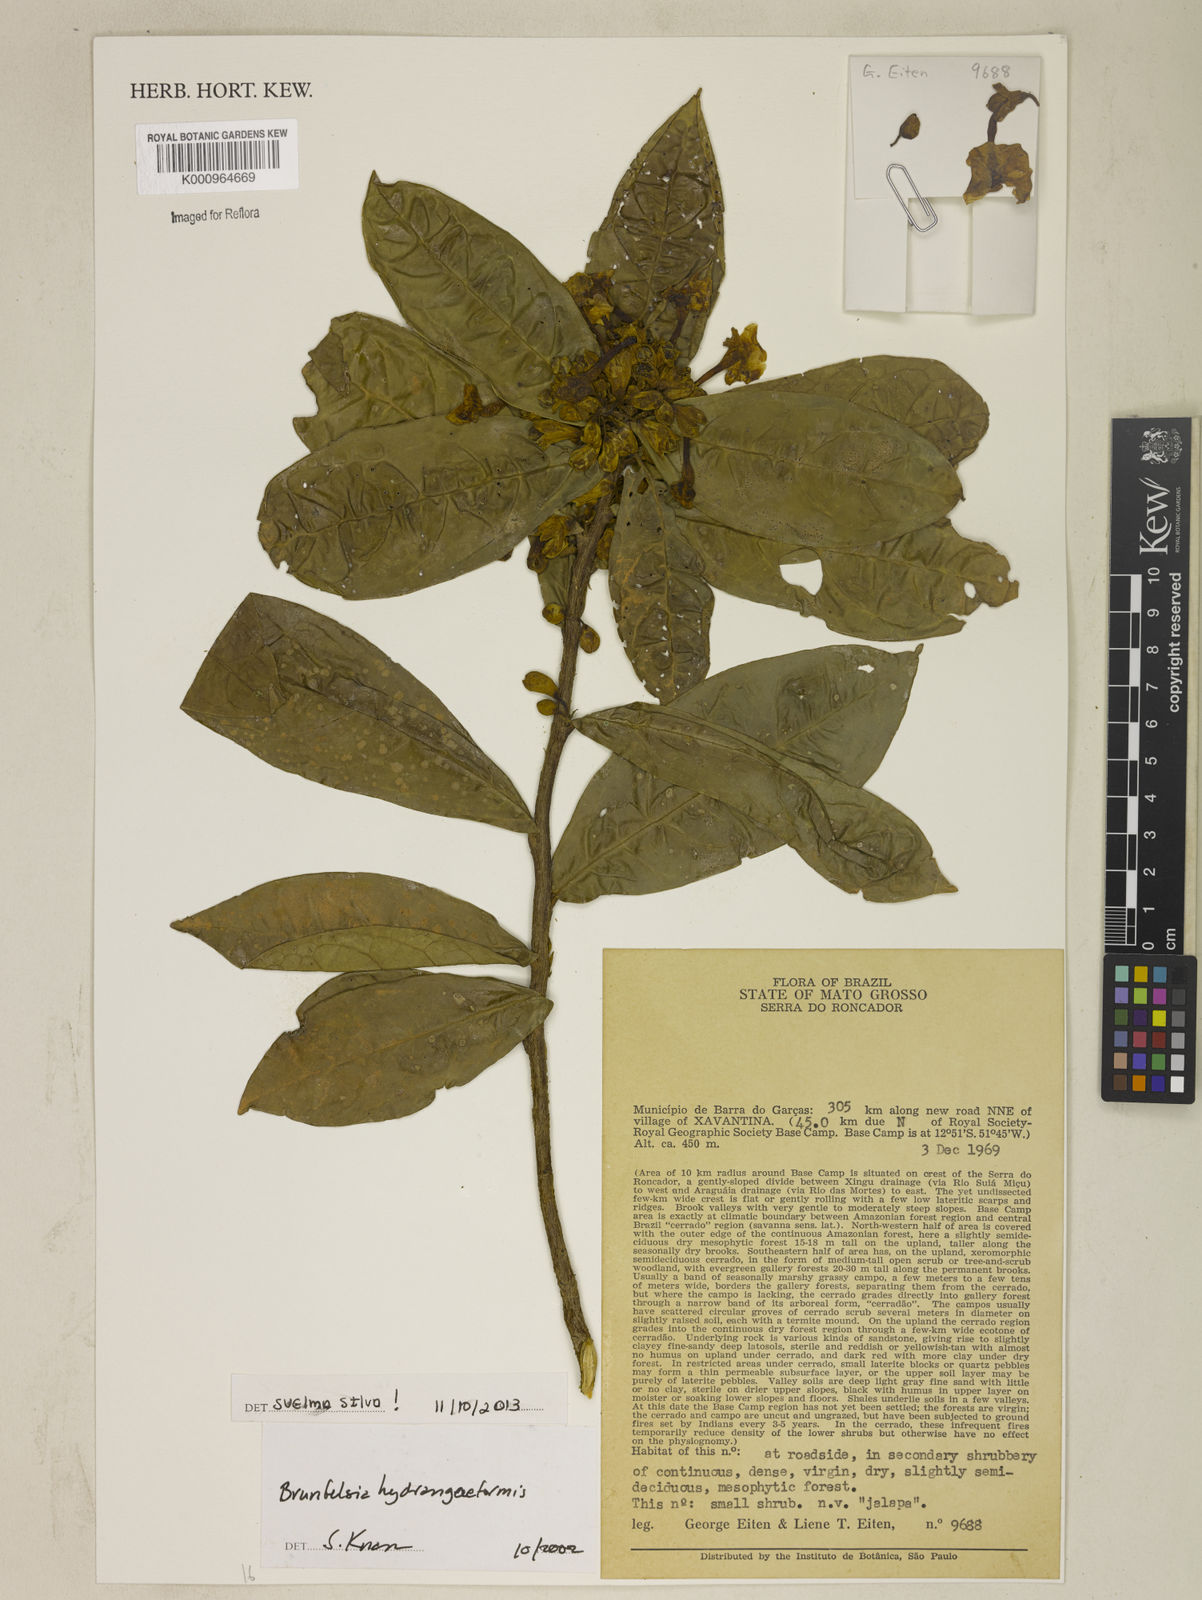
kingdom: Plantae
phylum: Tracheophyta
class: Magnoliopsida
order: Solanales
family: Solanaceae
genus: Brunfelsia
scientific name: Brunfelsia hydrangeiformis
